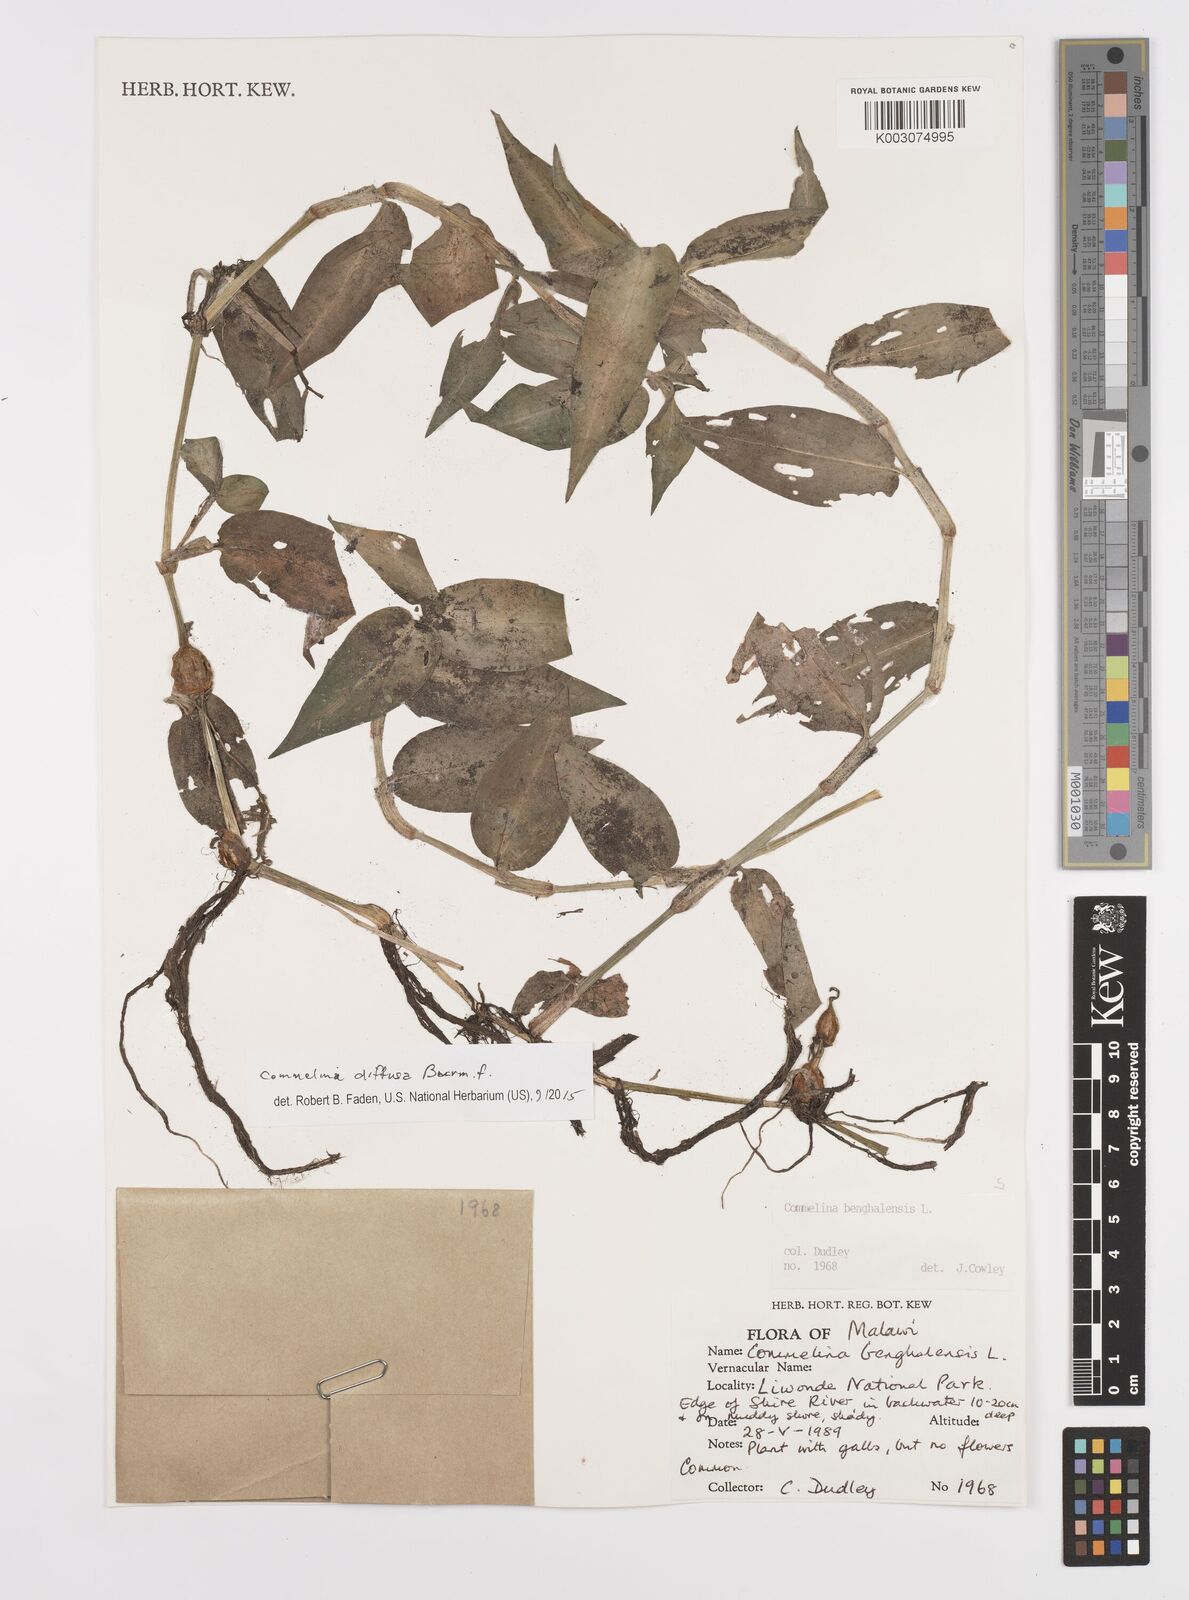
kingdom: Plantae
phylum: Tracheophyta
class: Liliopsida
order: Commelinales
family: Commelinaceae
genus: Commelina
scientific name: Commelina diffusa
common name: Climbing dayflower
